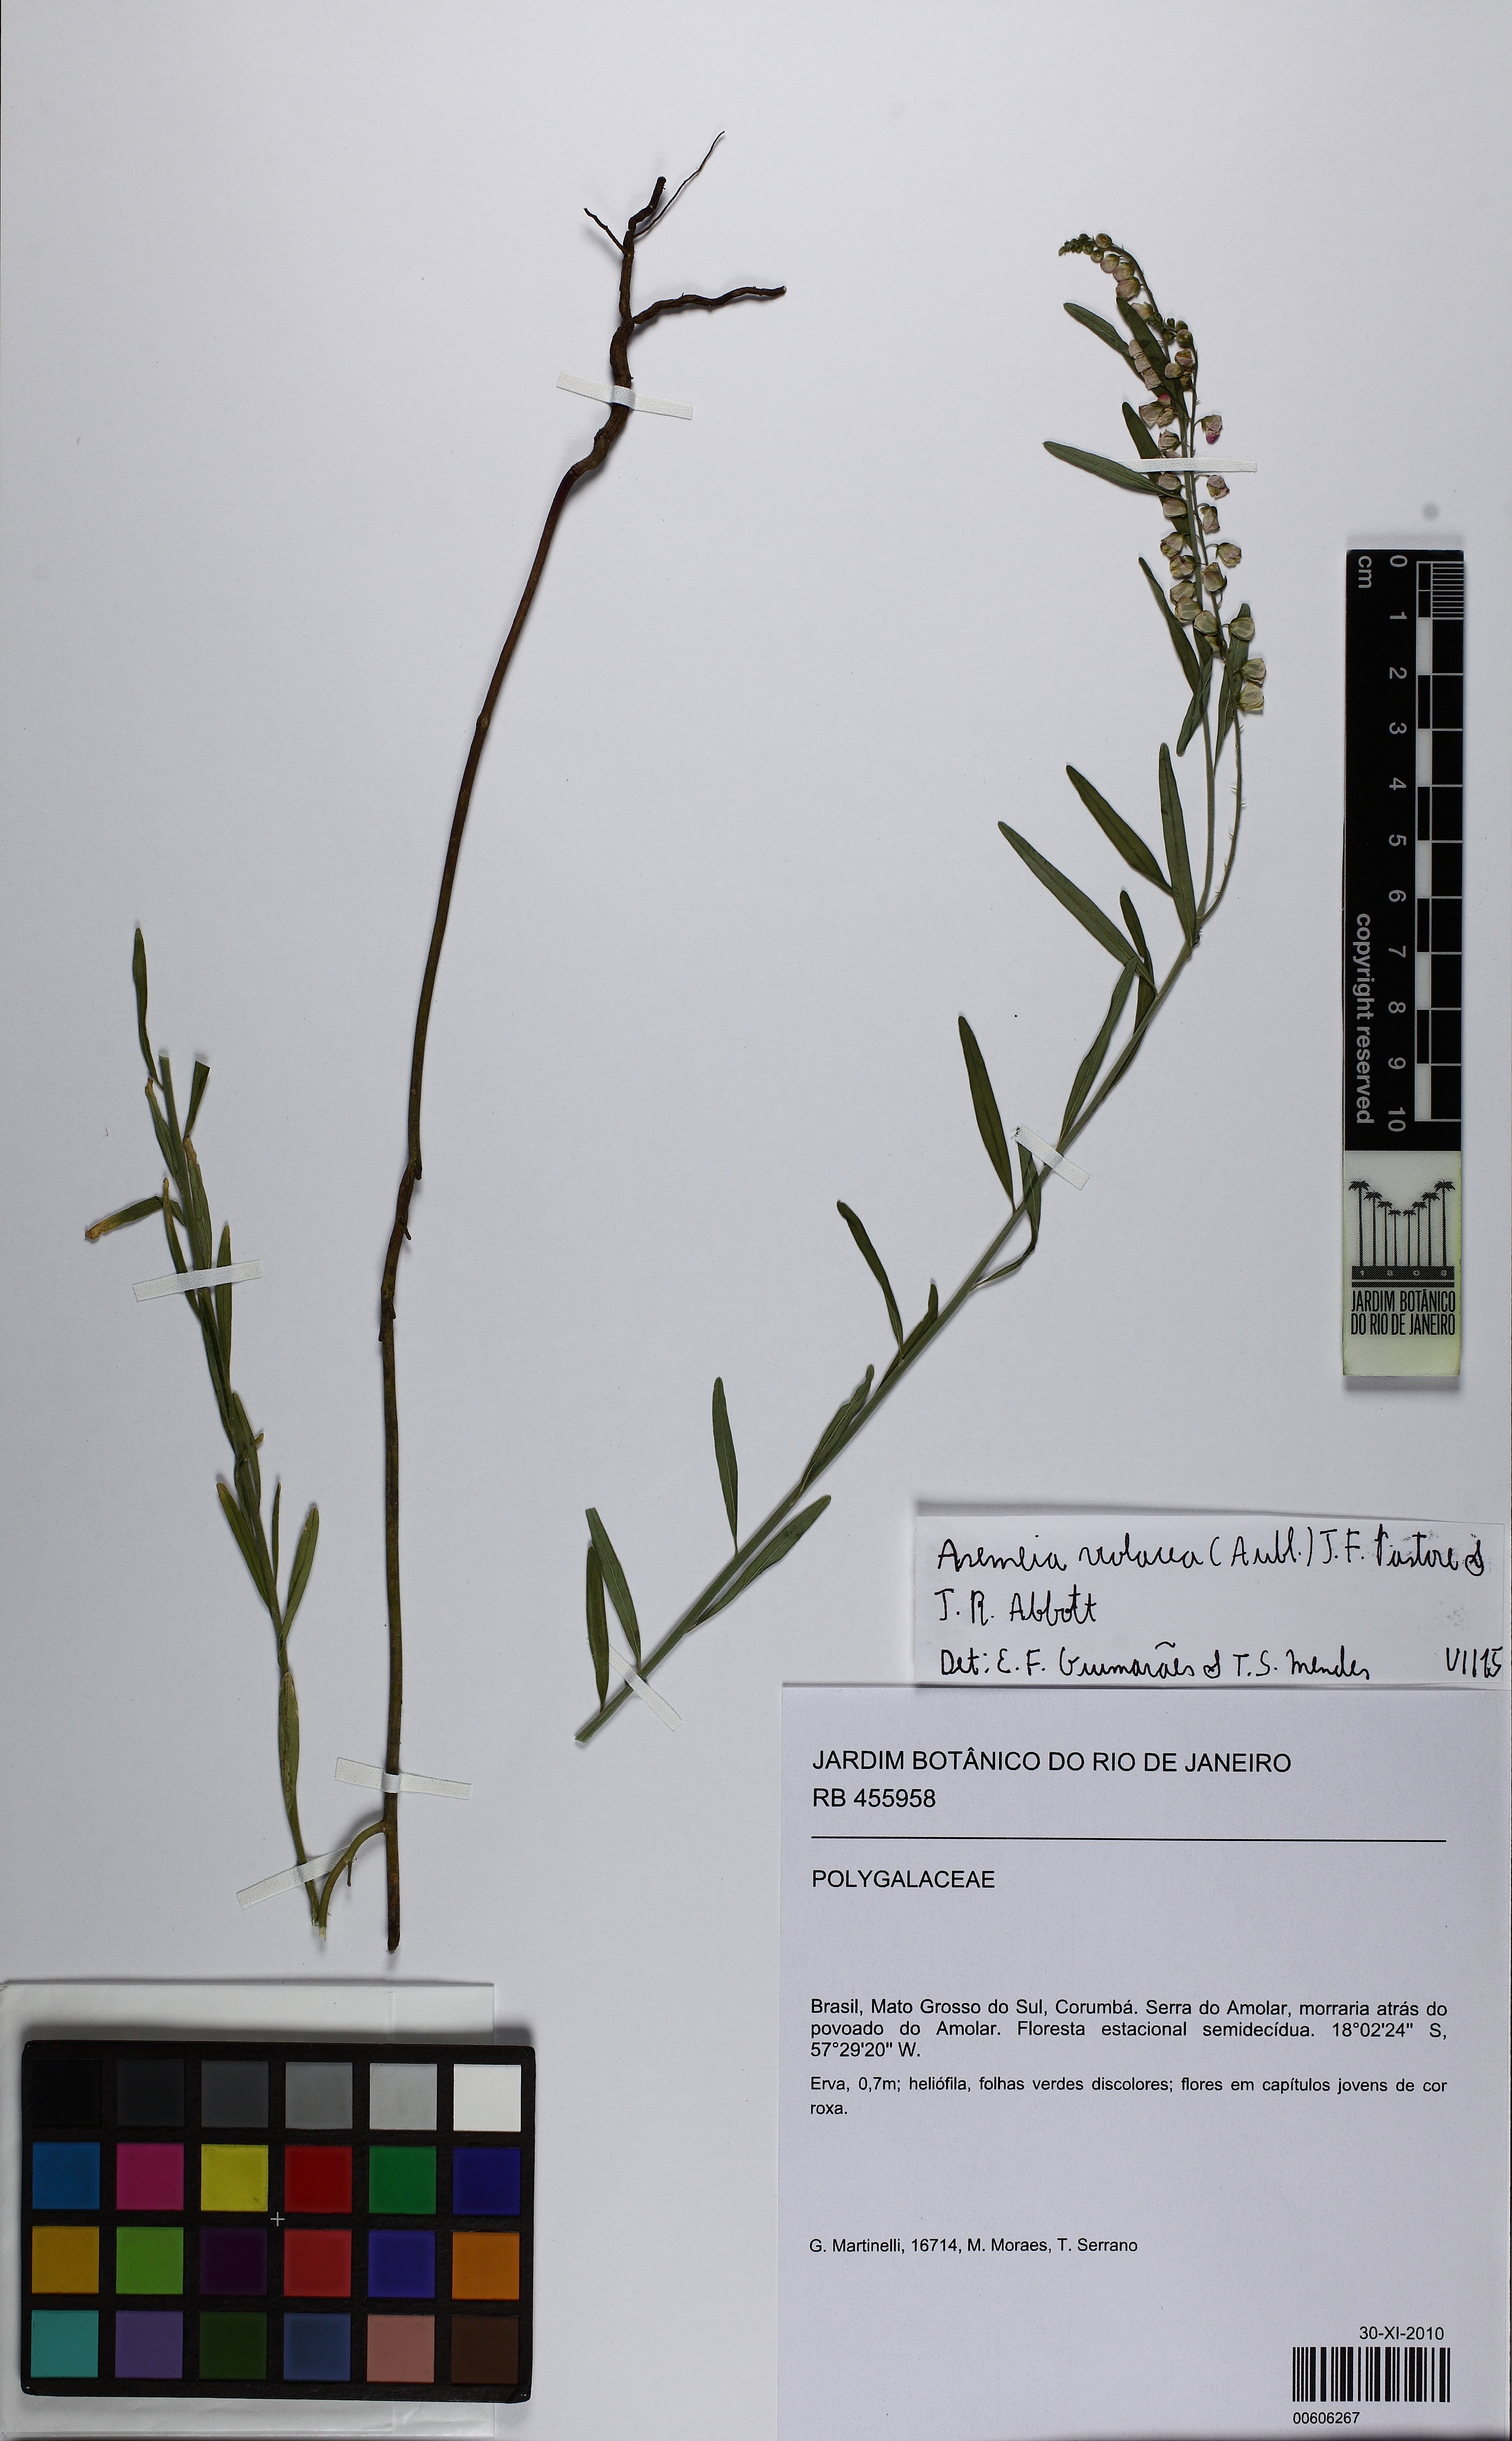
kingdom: Plantae
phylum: Tracheophyta
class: Magnoliopsida
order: Fabales
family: Polygalaceae
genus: Asemeia
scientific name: Asemeia violacea
